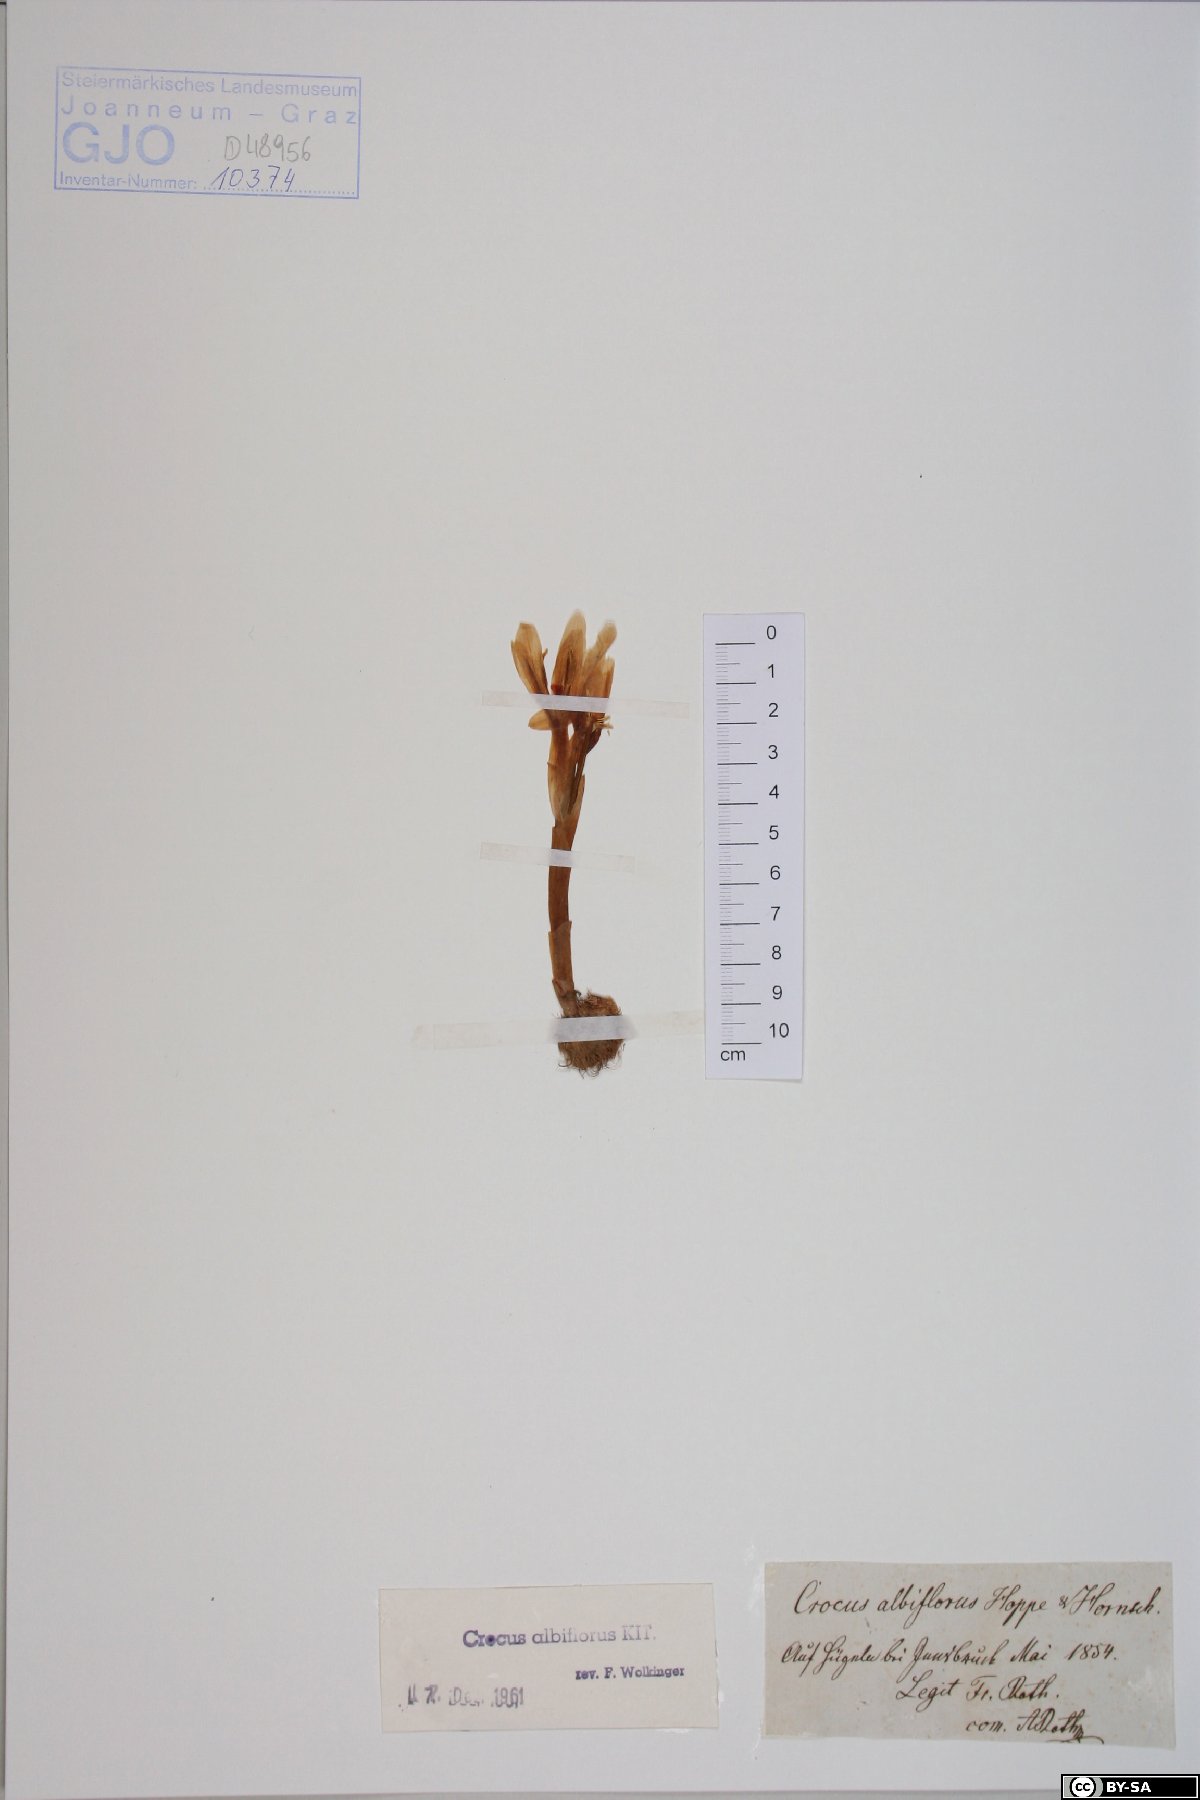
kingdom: Plantae
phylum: Tracheophyta
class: Liliopsida
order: Asparagales
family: Iridaceae
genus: Crocus
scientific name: Crocus vernus
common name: Spring crocus
